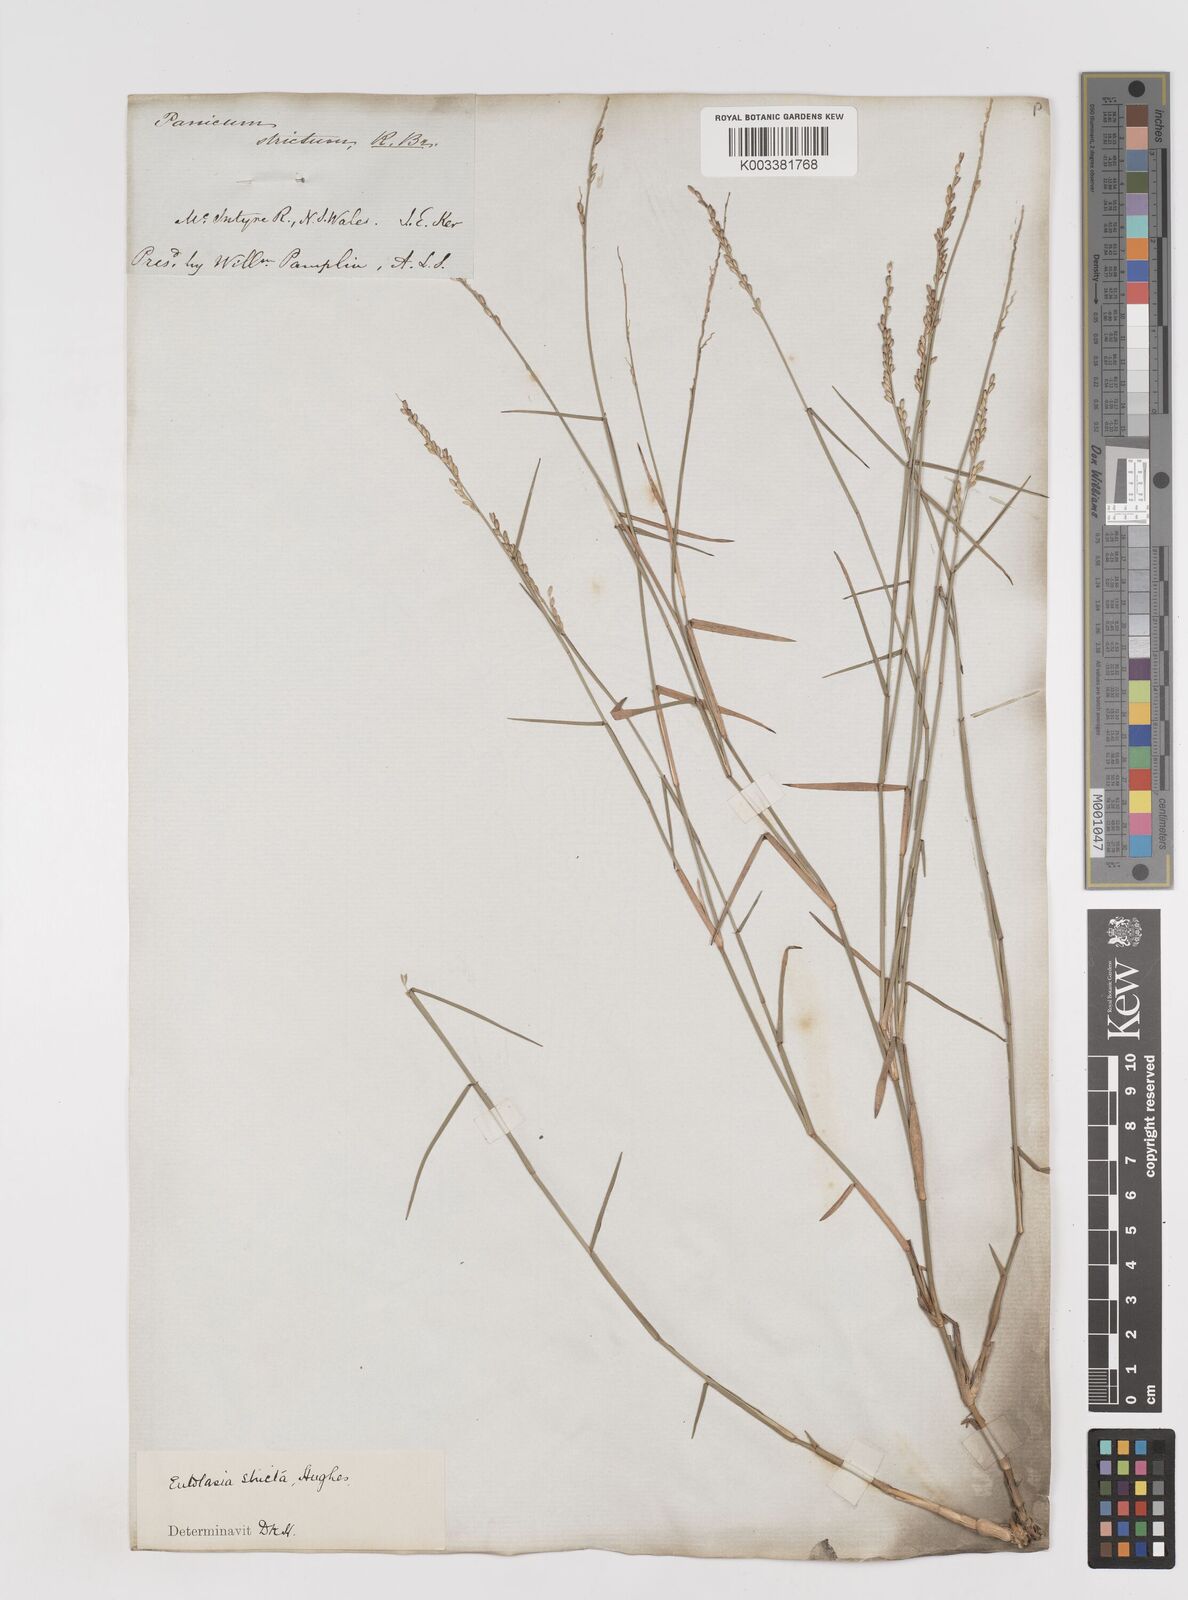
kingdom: Plantae
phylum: Tracheophyta
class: Liliopsida
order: Poales
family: Poaceae
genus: Entolasia
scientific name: Entolasia stricta
